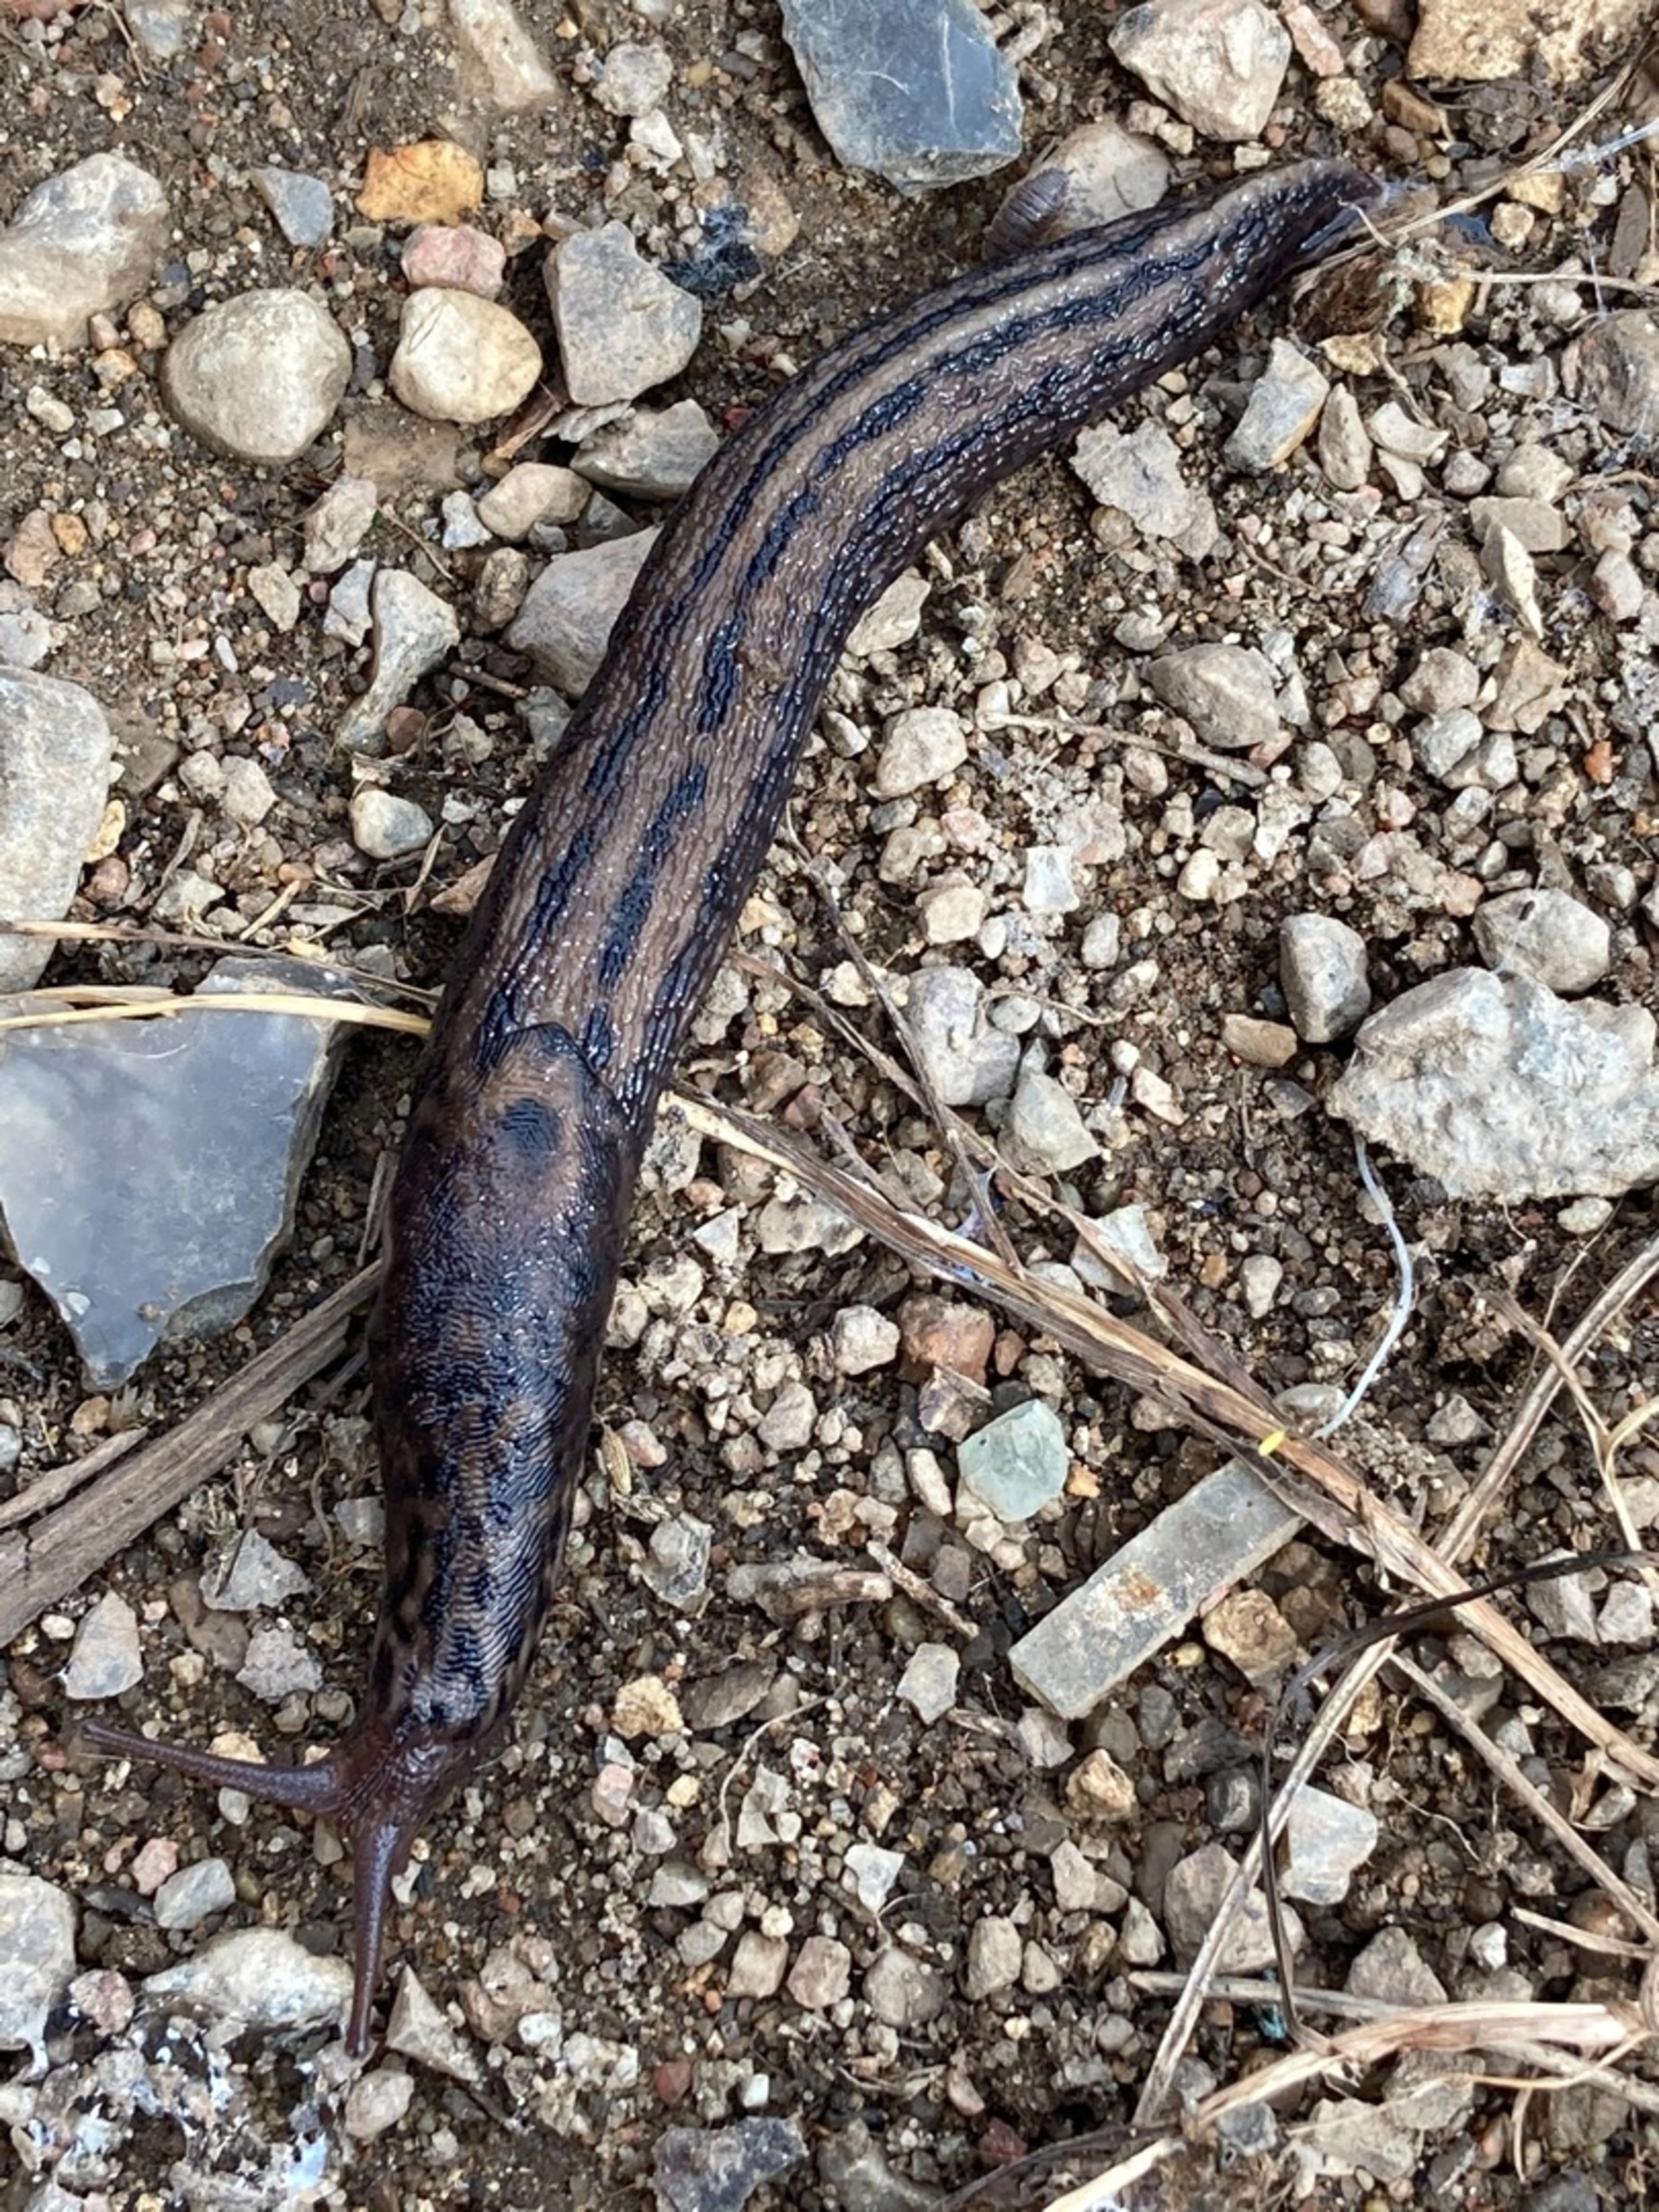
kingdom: Animalia
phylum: Mollusca
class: Gastropoda
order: Stylommatophora
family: Limacidae
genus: Limax
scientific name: Limax maximus
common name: Pantersnegl
